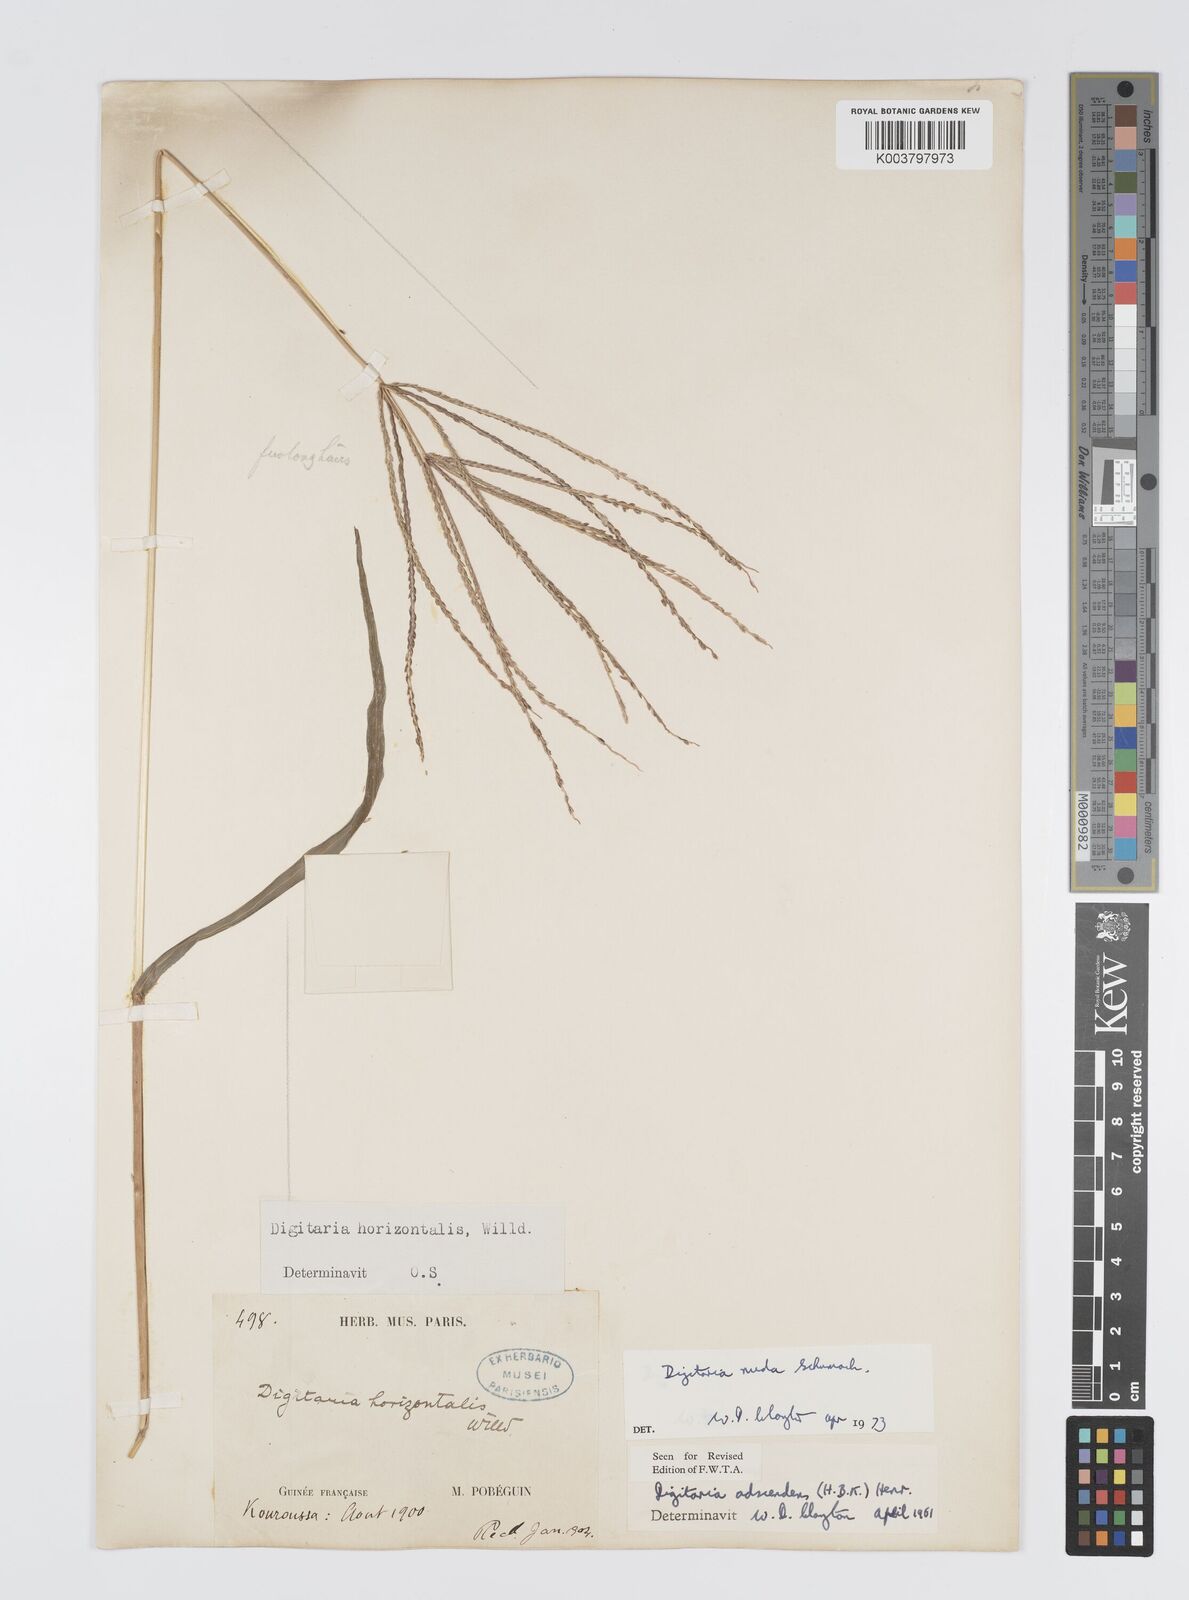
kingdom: Plantae
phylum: Tracheophyta
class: Liliopsida
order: Poales
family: Poaceae
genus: Digitaria
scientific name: Digitaria nuda
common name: Naked crabgrass
